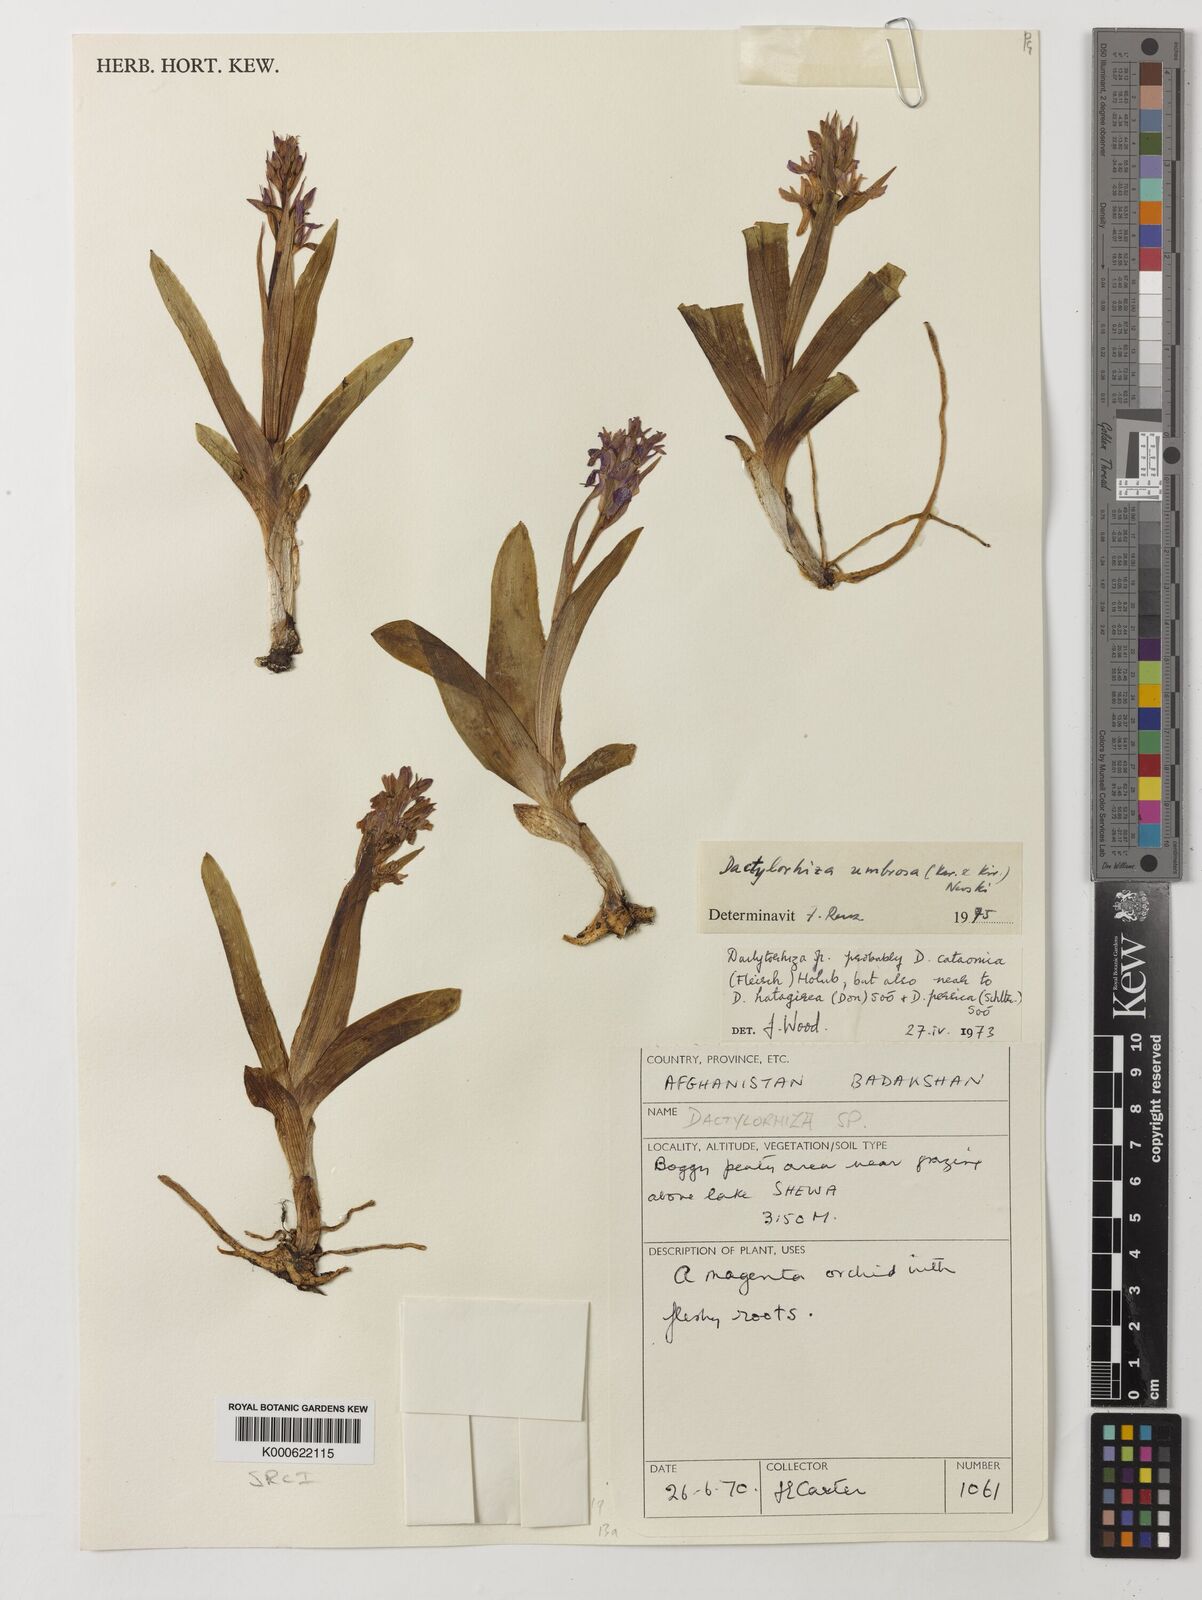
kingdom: Plantae
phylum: Tracheophyta
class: Liliopsida
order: Asparagales
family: Orchidaceae
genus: Dactylorhiza
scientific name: Dactylorhiza
